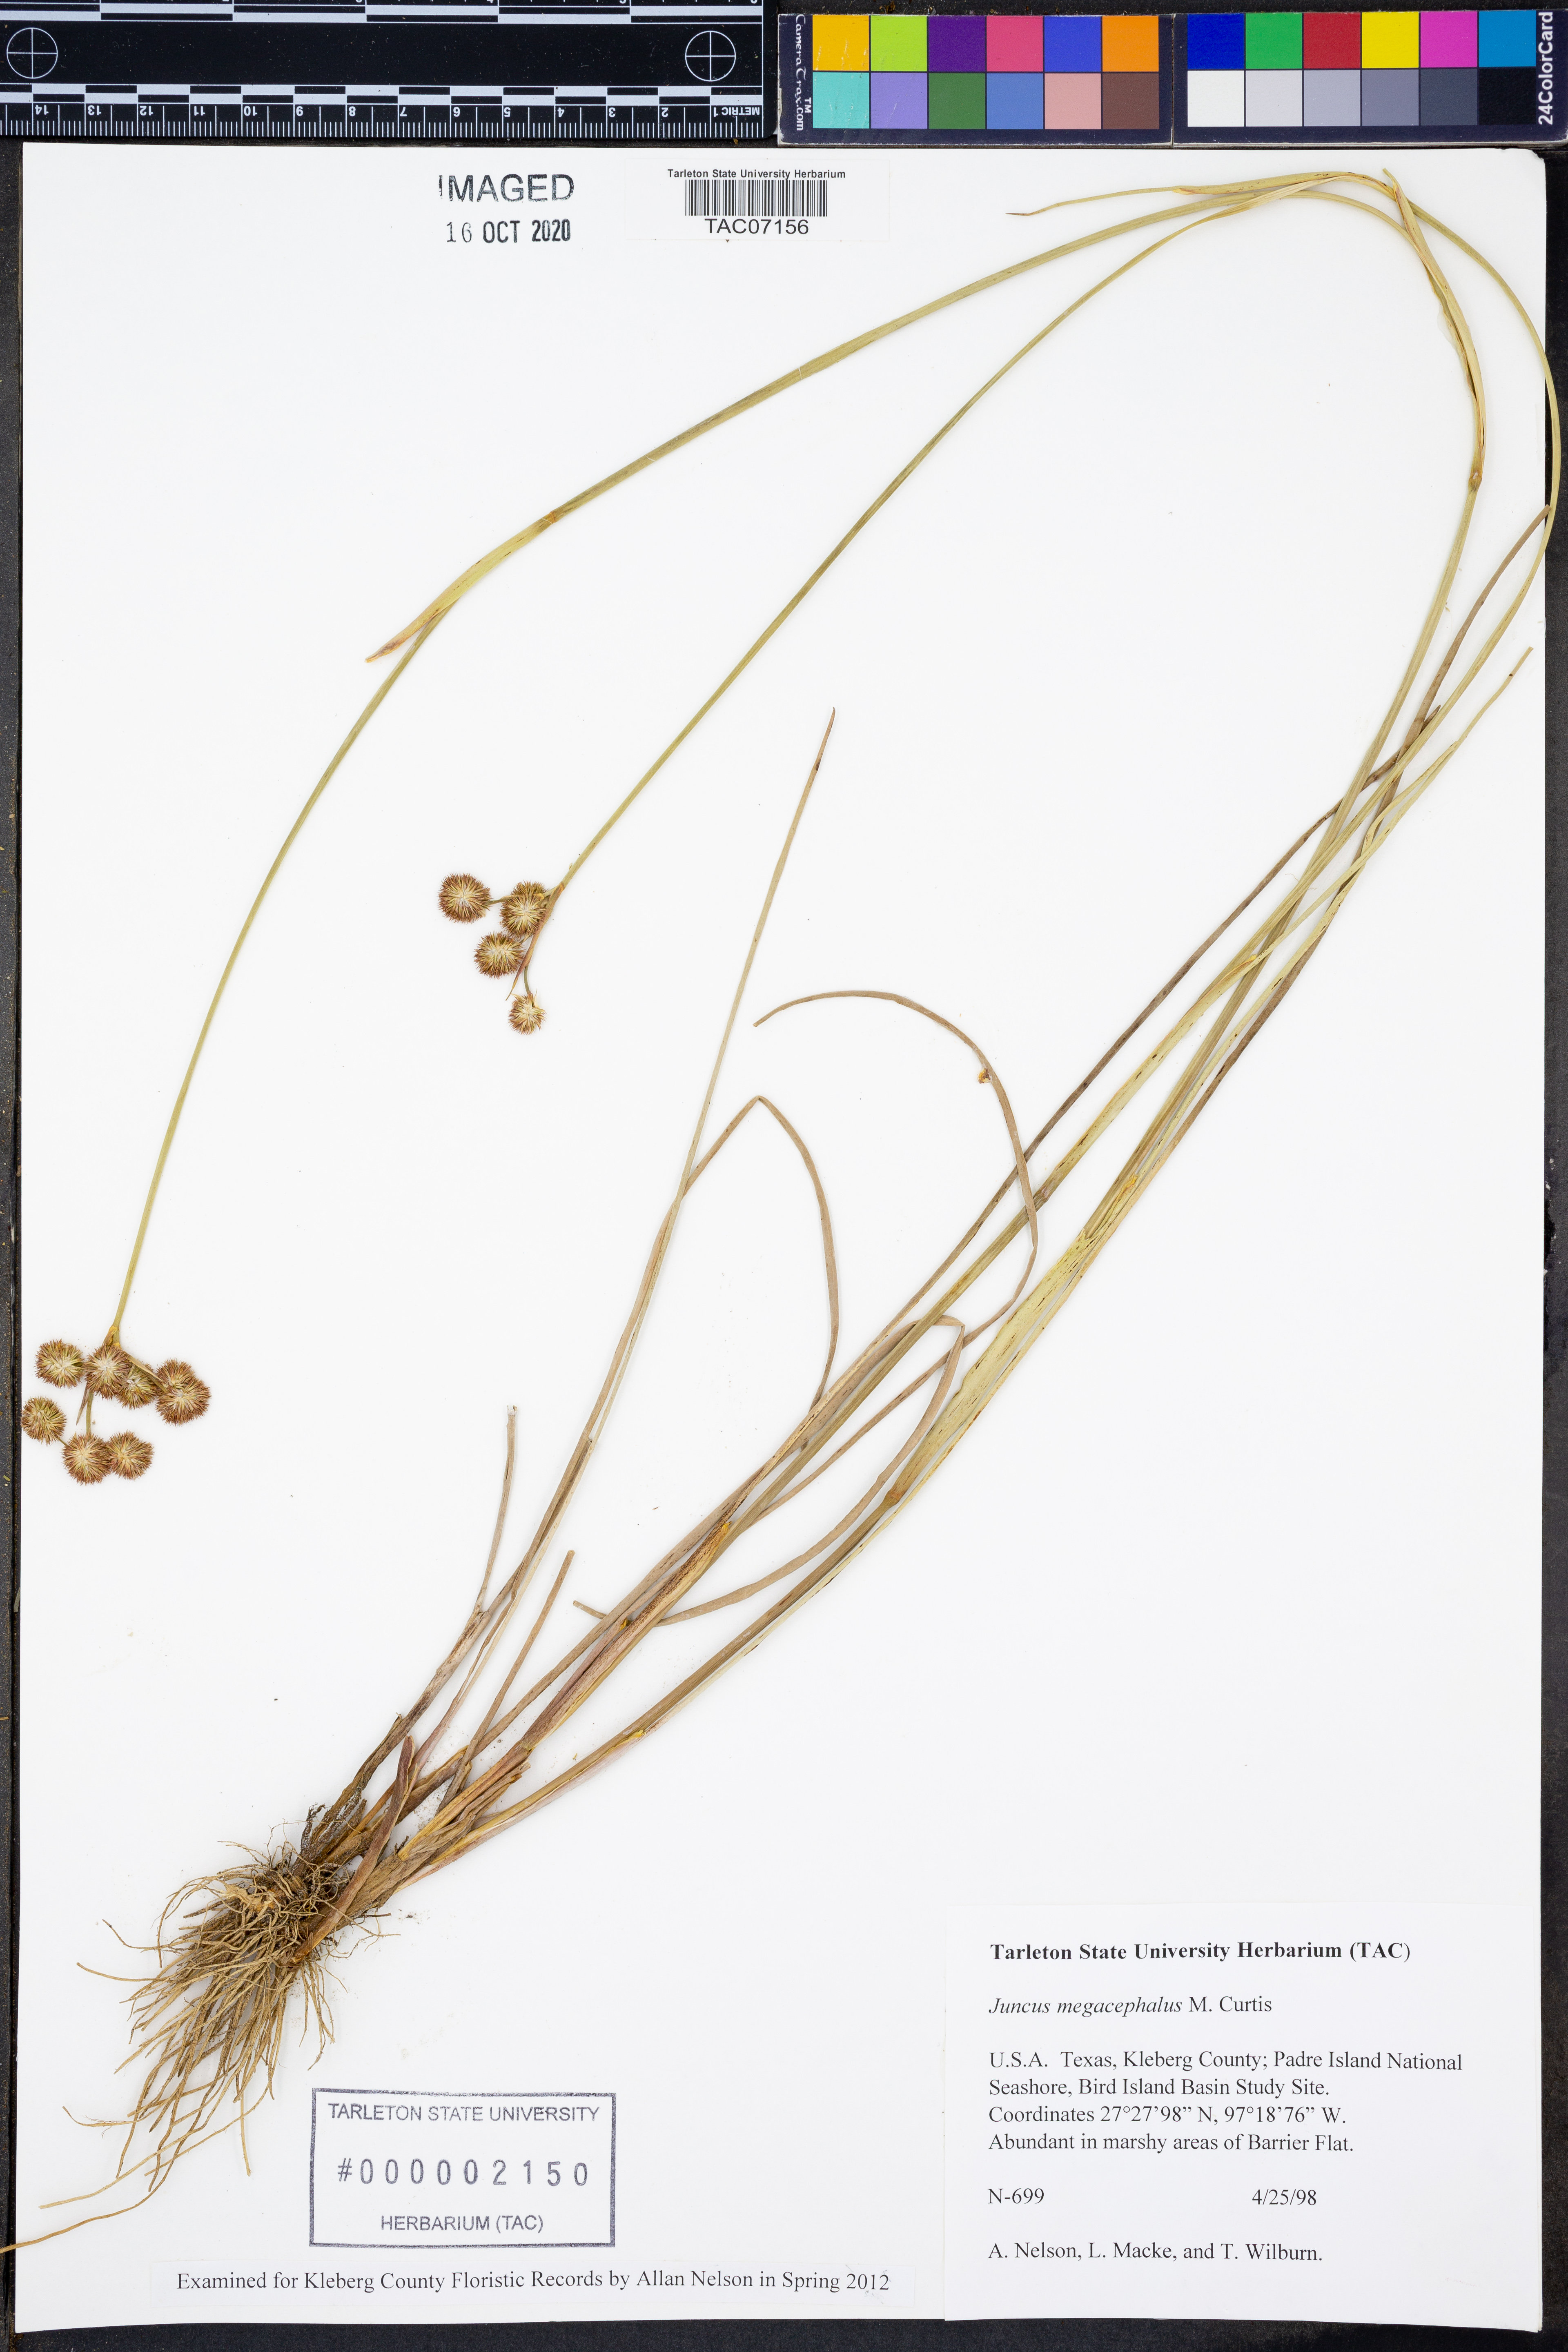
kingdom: Plantae
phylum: Tracheophyta
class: Liliopsida
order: Poales
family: Juncaceae
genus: Juncus
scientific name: Juncus megacephalus
